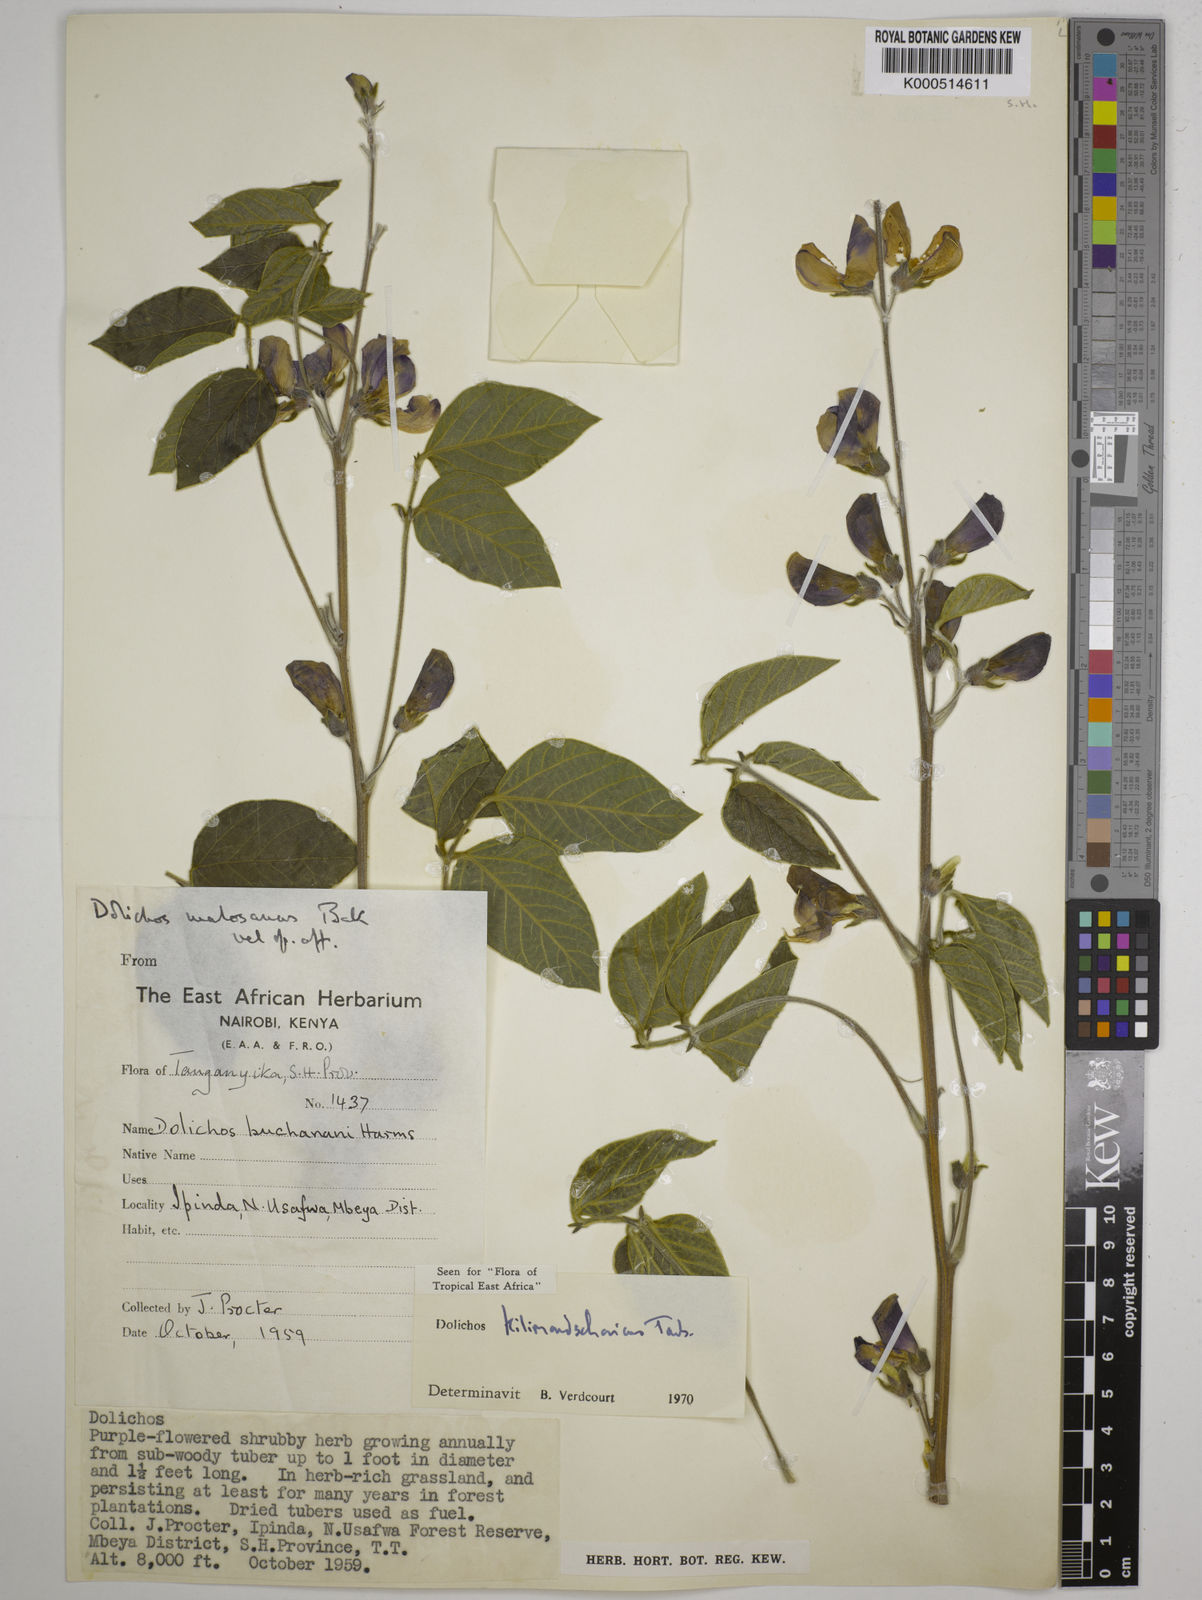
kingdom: Plantae
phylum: Tracheophyta
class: Magnoliopsida
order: Fabales
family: Fabaceae
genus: Dolichos
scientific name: Dolichos kilimandscharicus
